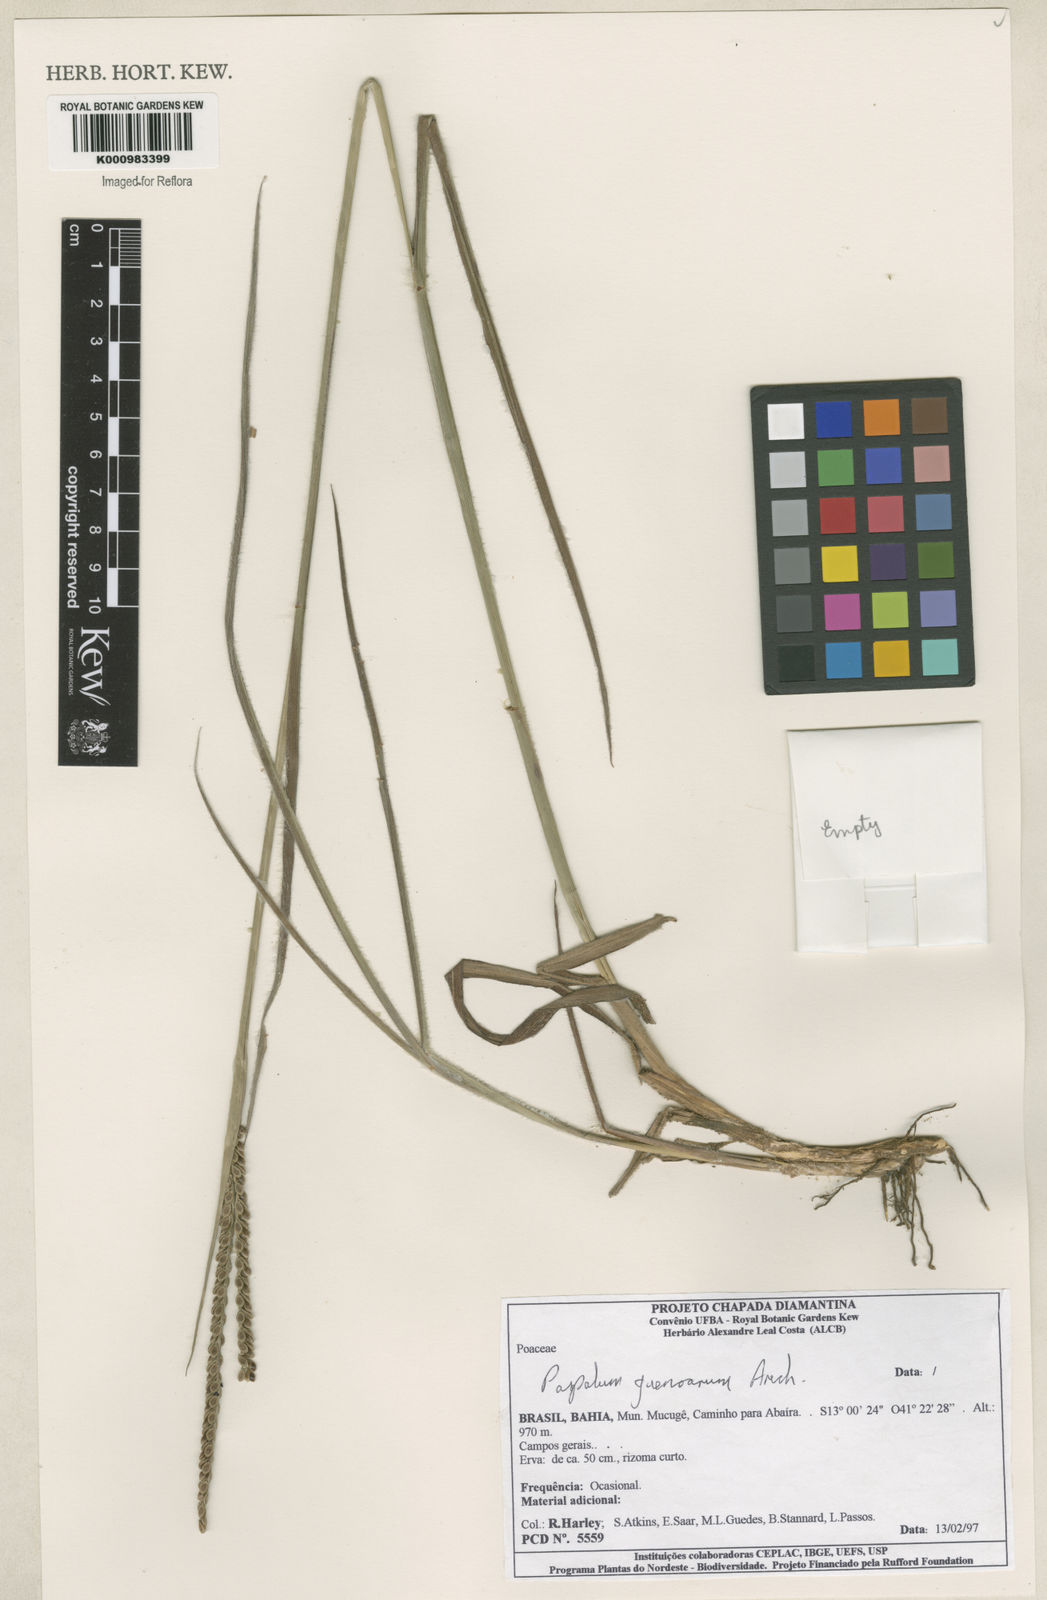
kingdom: Plantae
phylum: Tracheophyta
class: Liliopsida
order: Poales
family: Poaceae
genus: Paspalum
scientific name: Paspalum guenoarum
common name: Wintergreen paspalum
